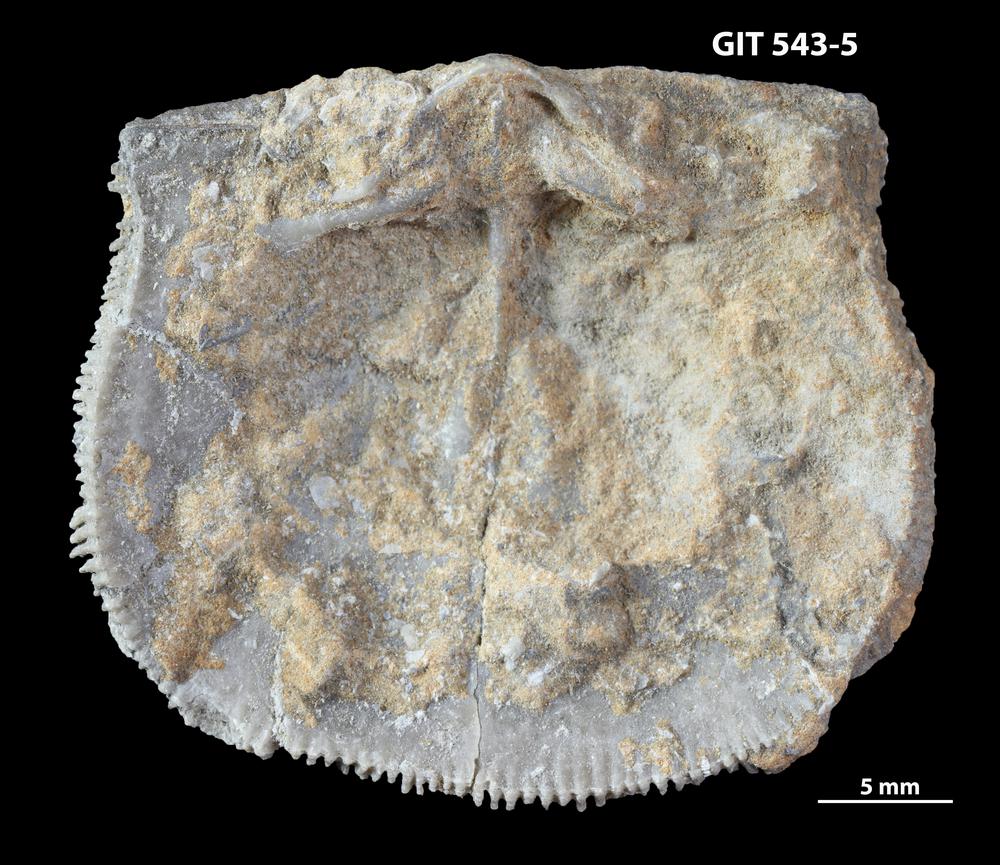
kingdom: Animalia
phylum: Brachiopoda
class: Rhynchonellata
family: Clitambonitidae
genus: Clitambonites
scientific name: Clitambonites
